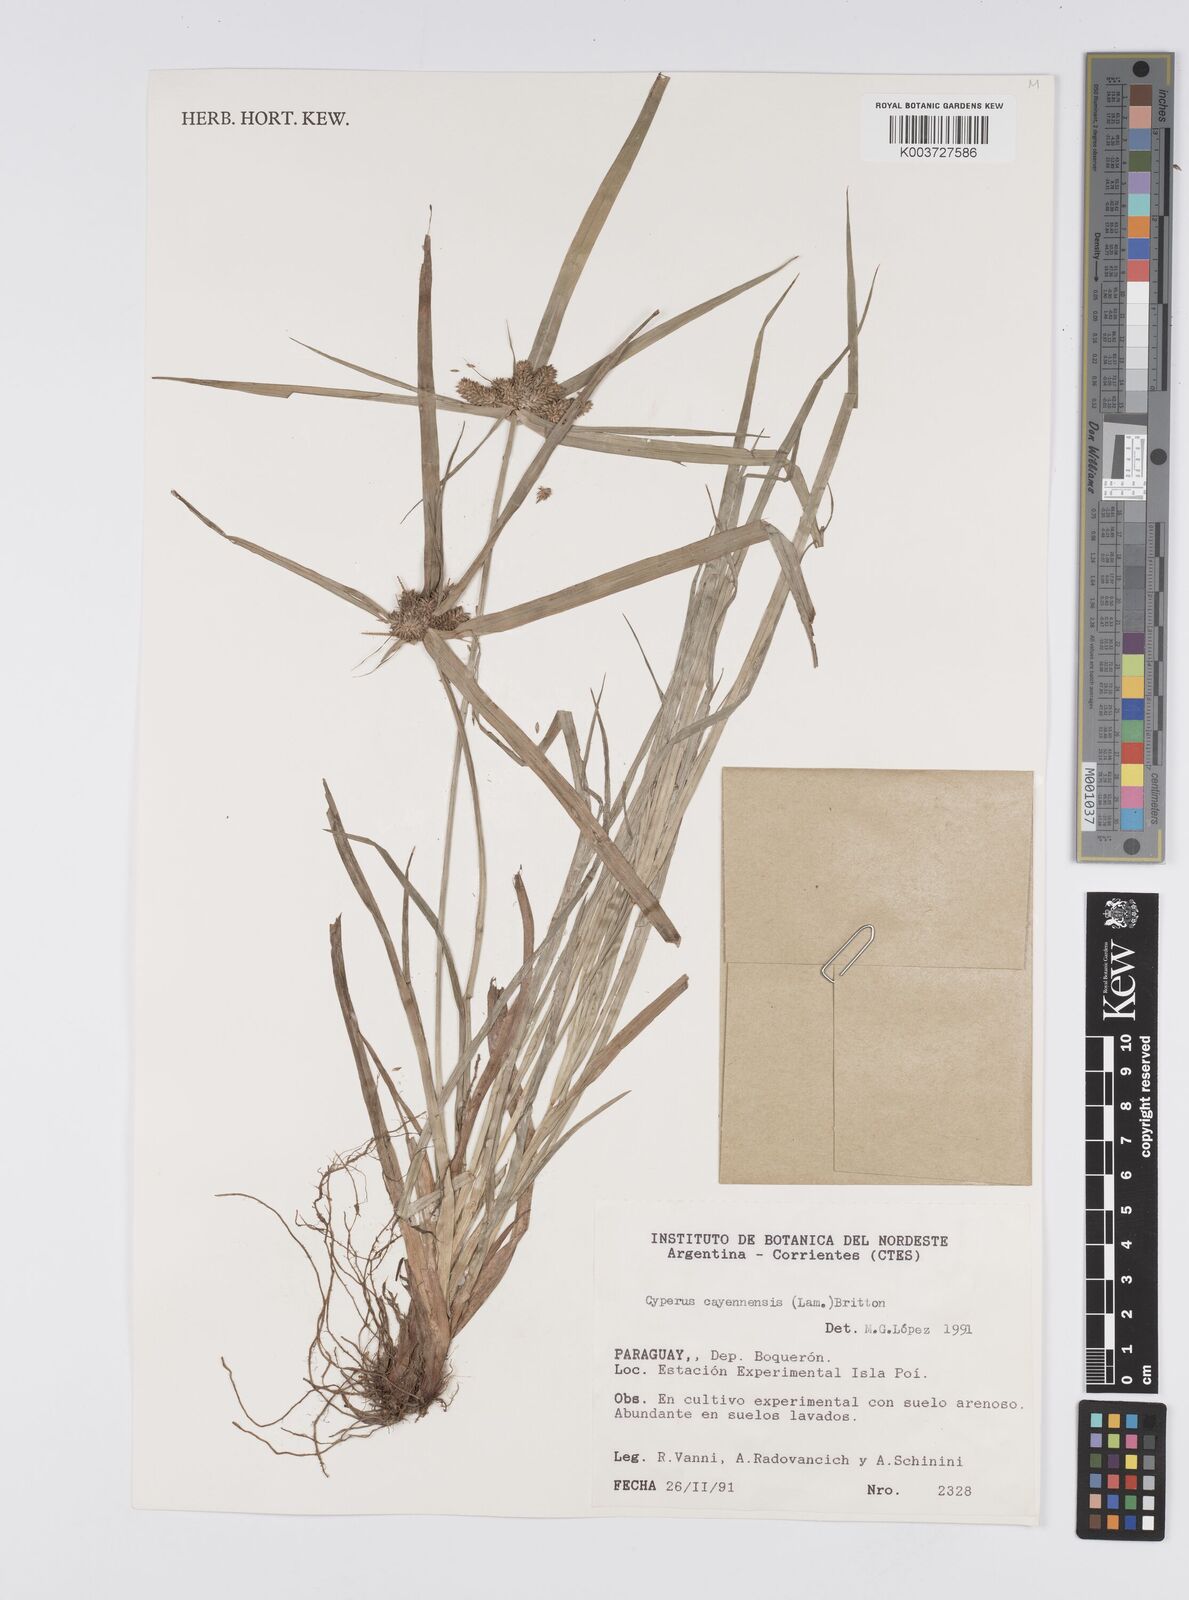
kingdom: Plantae
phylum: Tracheophyta
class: Liliopsida
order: Poales
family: Cyperaceae
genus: Cyperus
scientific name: Cyperus aggregatus
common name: Inflatedscale flatsedge
